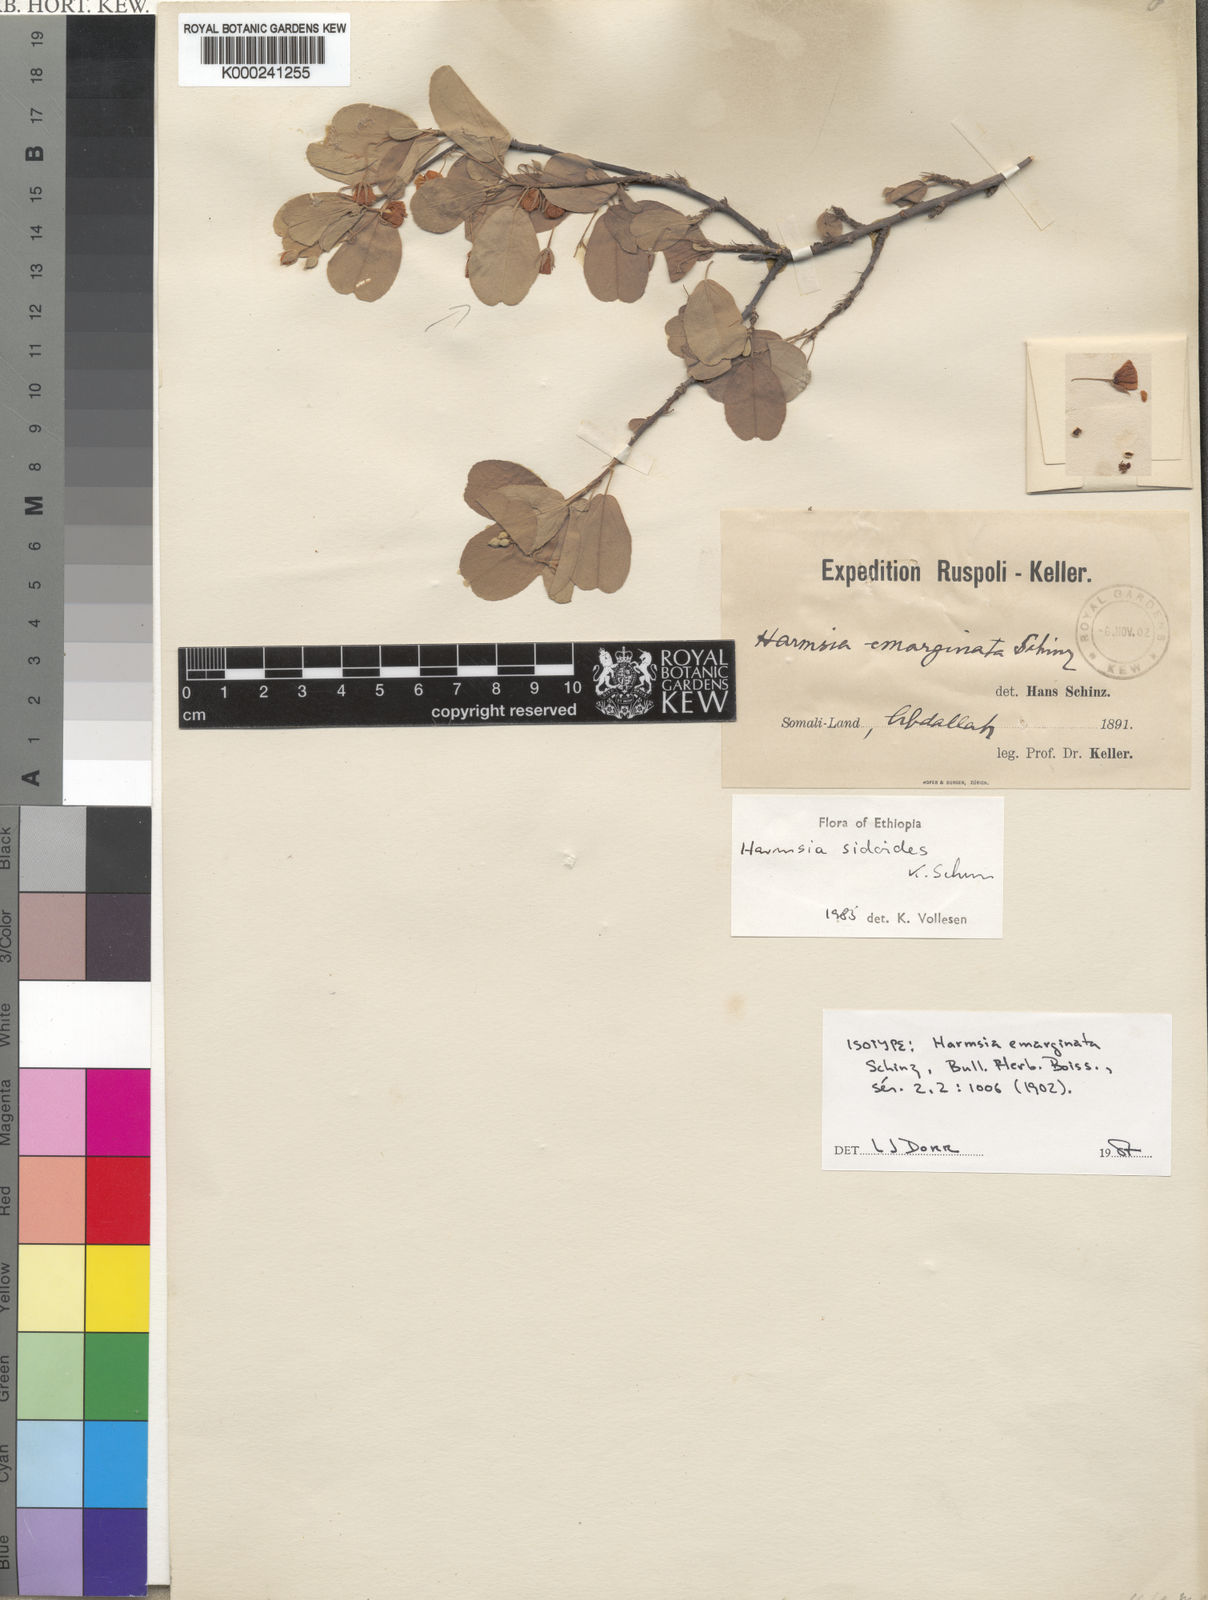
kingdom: Plantae
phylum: Tracheophyta
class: Magnoliopsida
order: Malvales
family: Malvaceae
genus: Harmsia
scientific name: Harmsia sidoides
